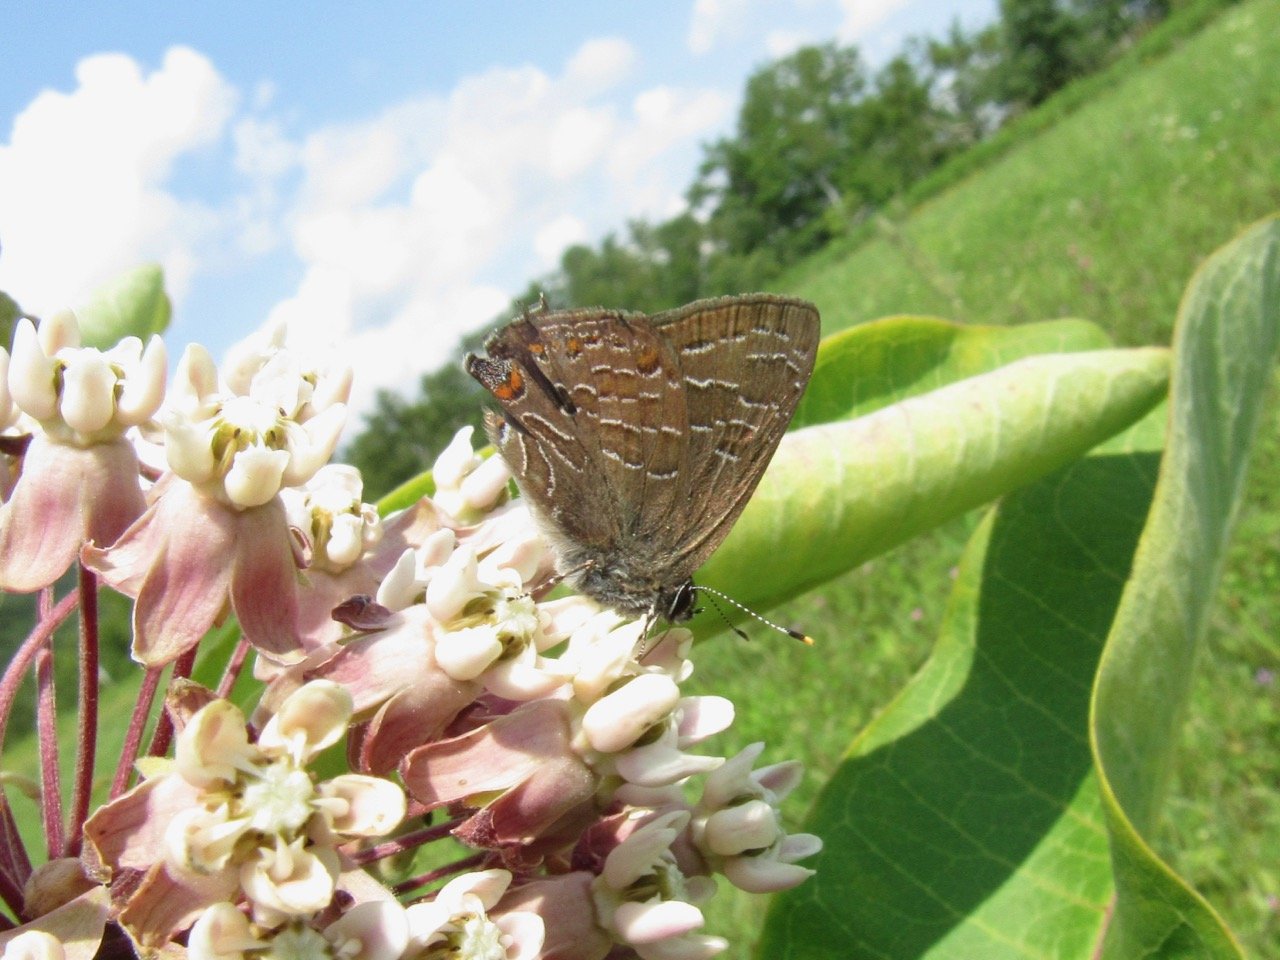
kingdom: Animalia
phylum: Arthropoda
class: Insecta
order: Lepidoptera
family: Lycaenidae
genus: Satyrium
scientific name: Satyrium liparops
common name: Striped Hairstreak
